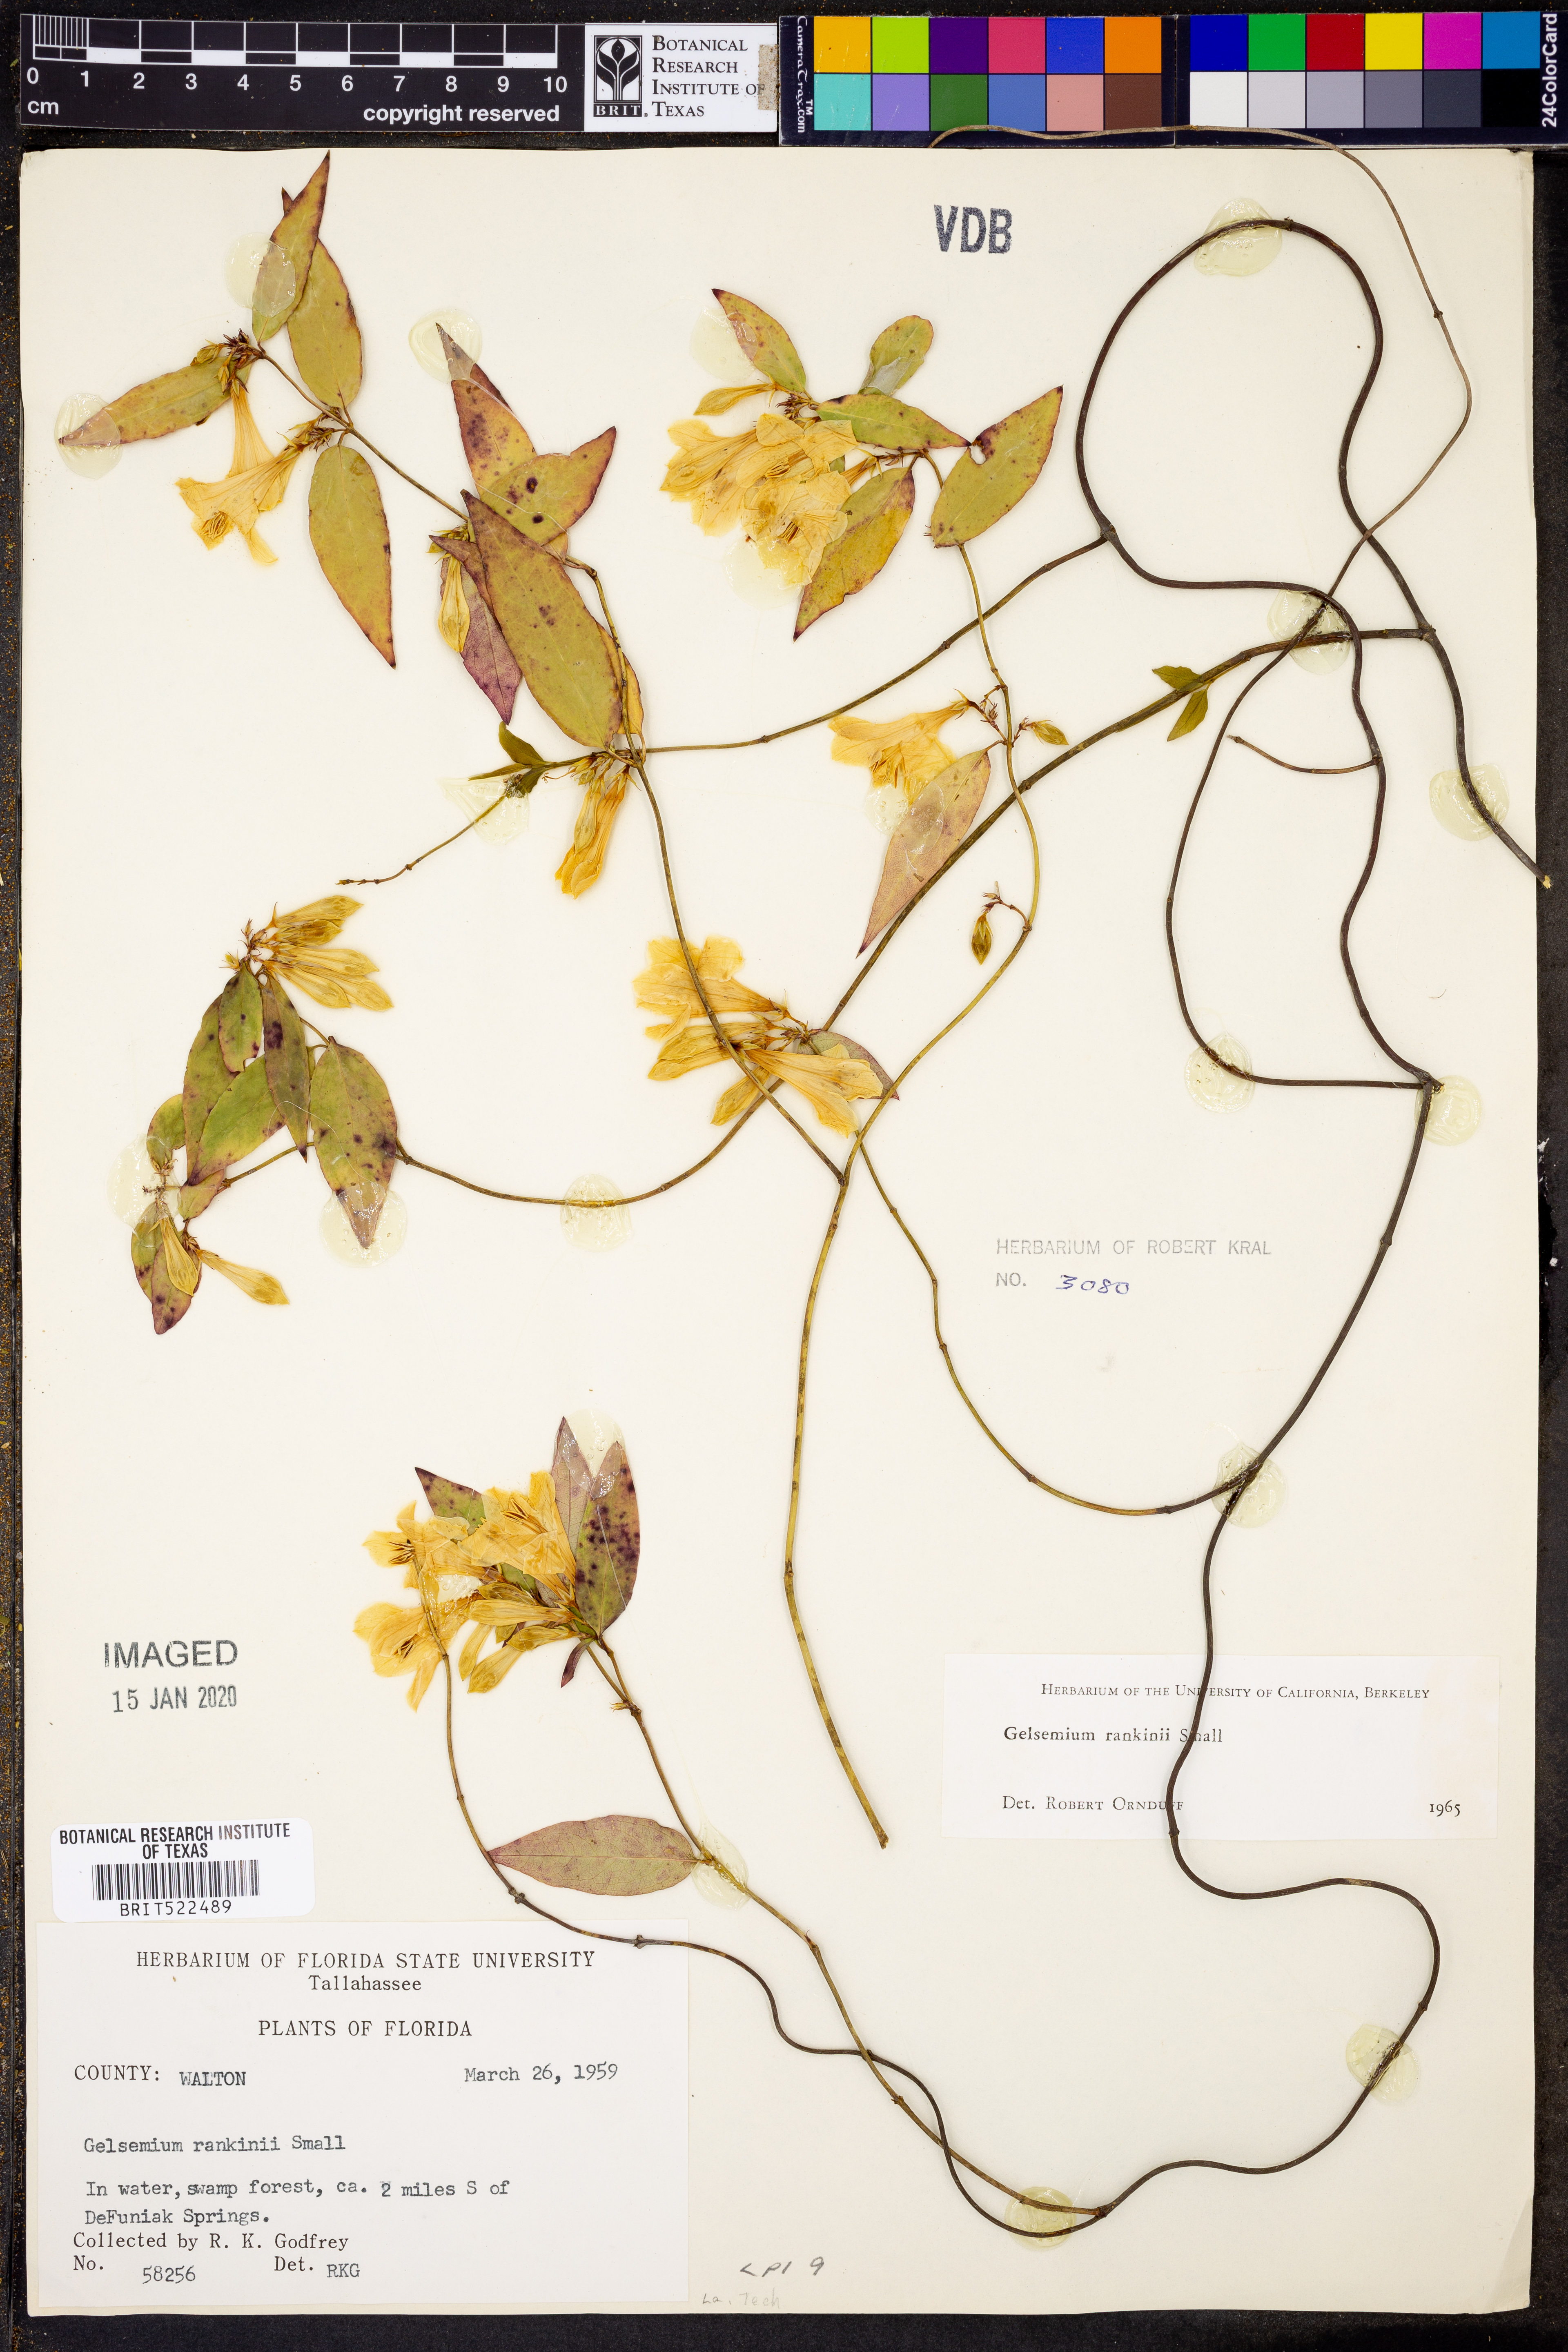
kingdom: Plantae
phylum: Tracheophyta
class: Magnoliopsida
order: Gentianales
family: Gelsemiaceae
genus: Gelsemium
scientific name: Gelsemium rankinii
